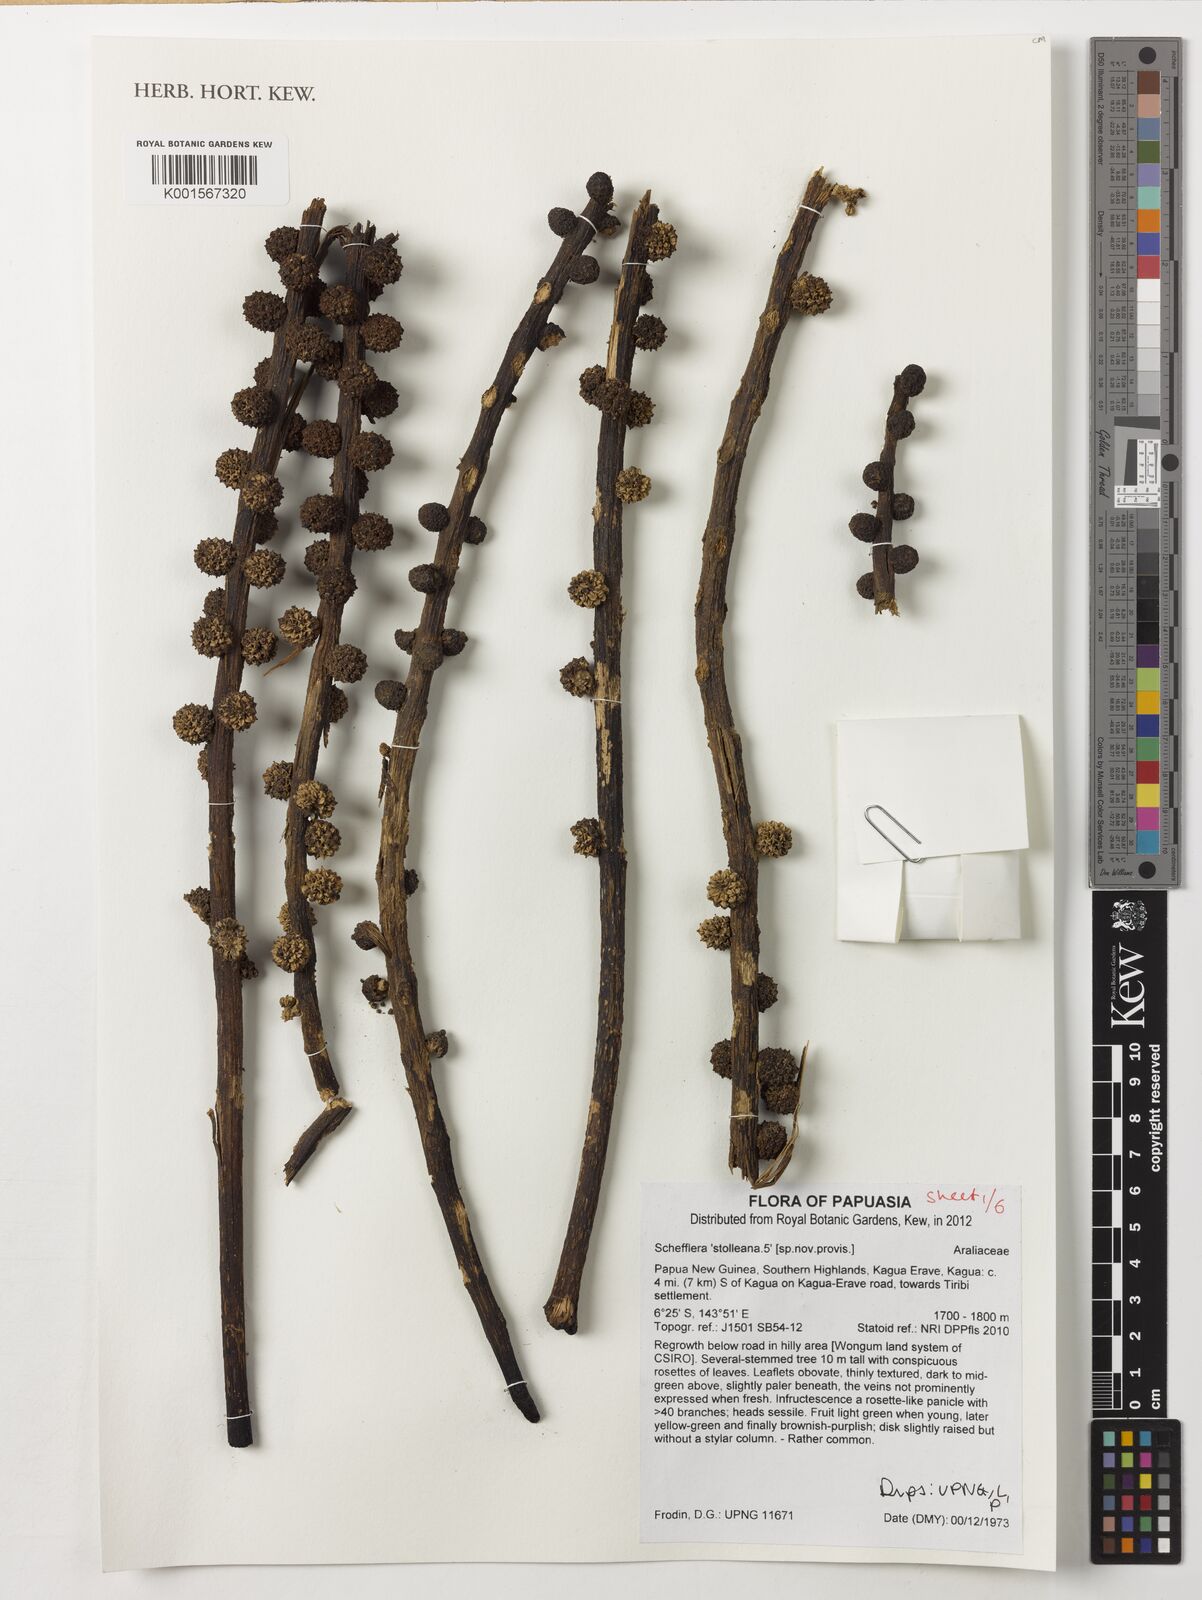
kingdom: Plantae
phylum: Tracheophyta
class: Magnoliopsida
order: Apiales
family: Araliaceae
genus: Heptapleurum
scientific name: Heptapleurum stolleanum
